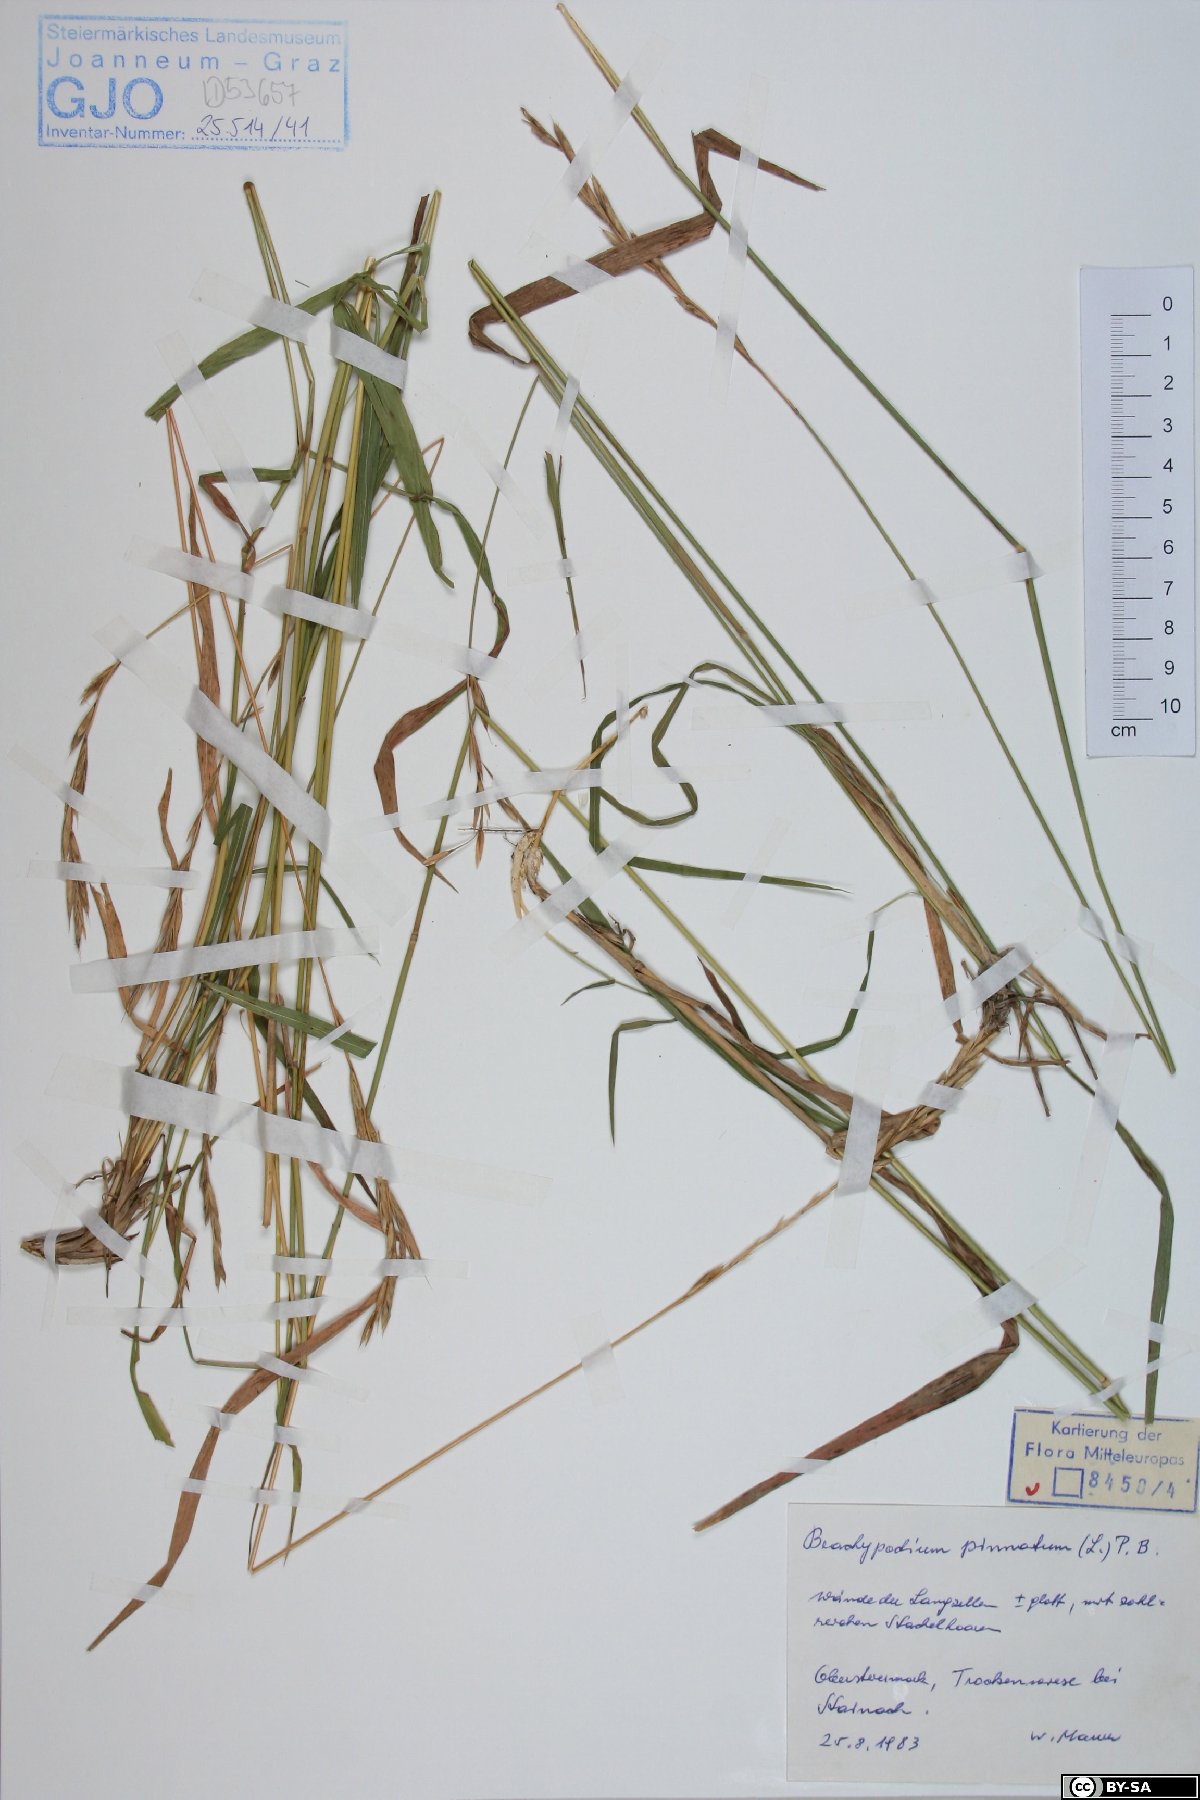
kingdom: Plantae
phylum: Tracheophyta
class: Liliopsida
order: Poales
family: Poaceae
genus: Brachypodium
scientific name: Brachypodium pinnatum
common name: Tor grass
